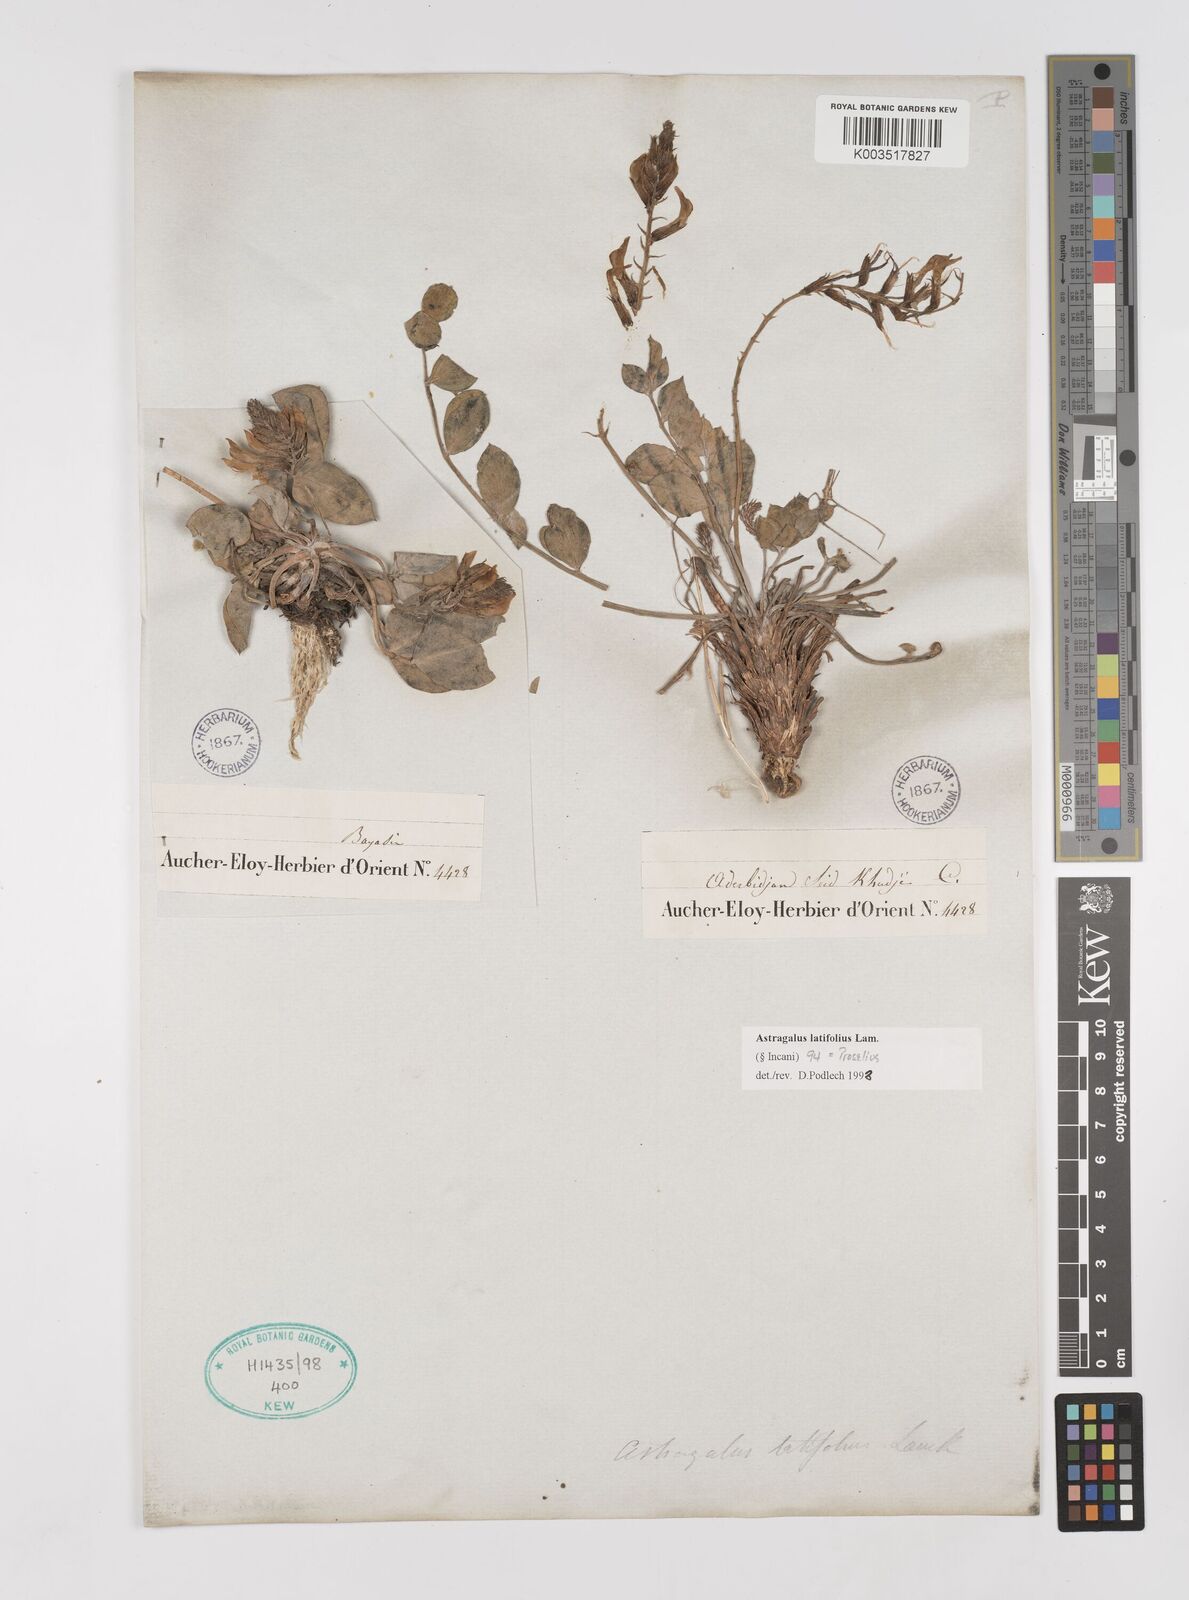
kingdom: Plantae
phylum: Tracheophyta
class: Magnoliopsida
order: Fabales
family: Fabaceae
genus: Astragalus
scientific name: Astragalus
